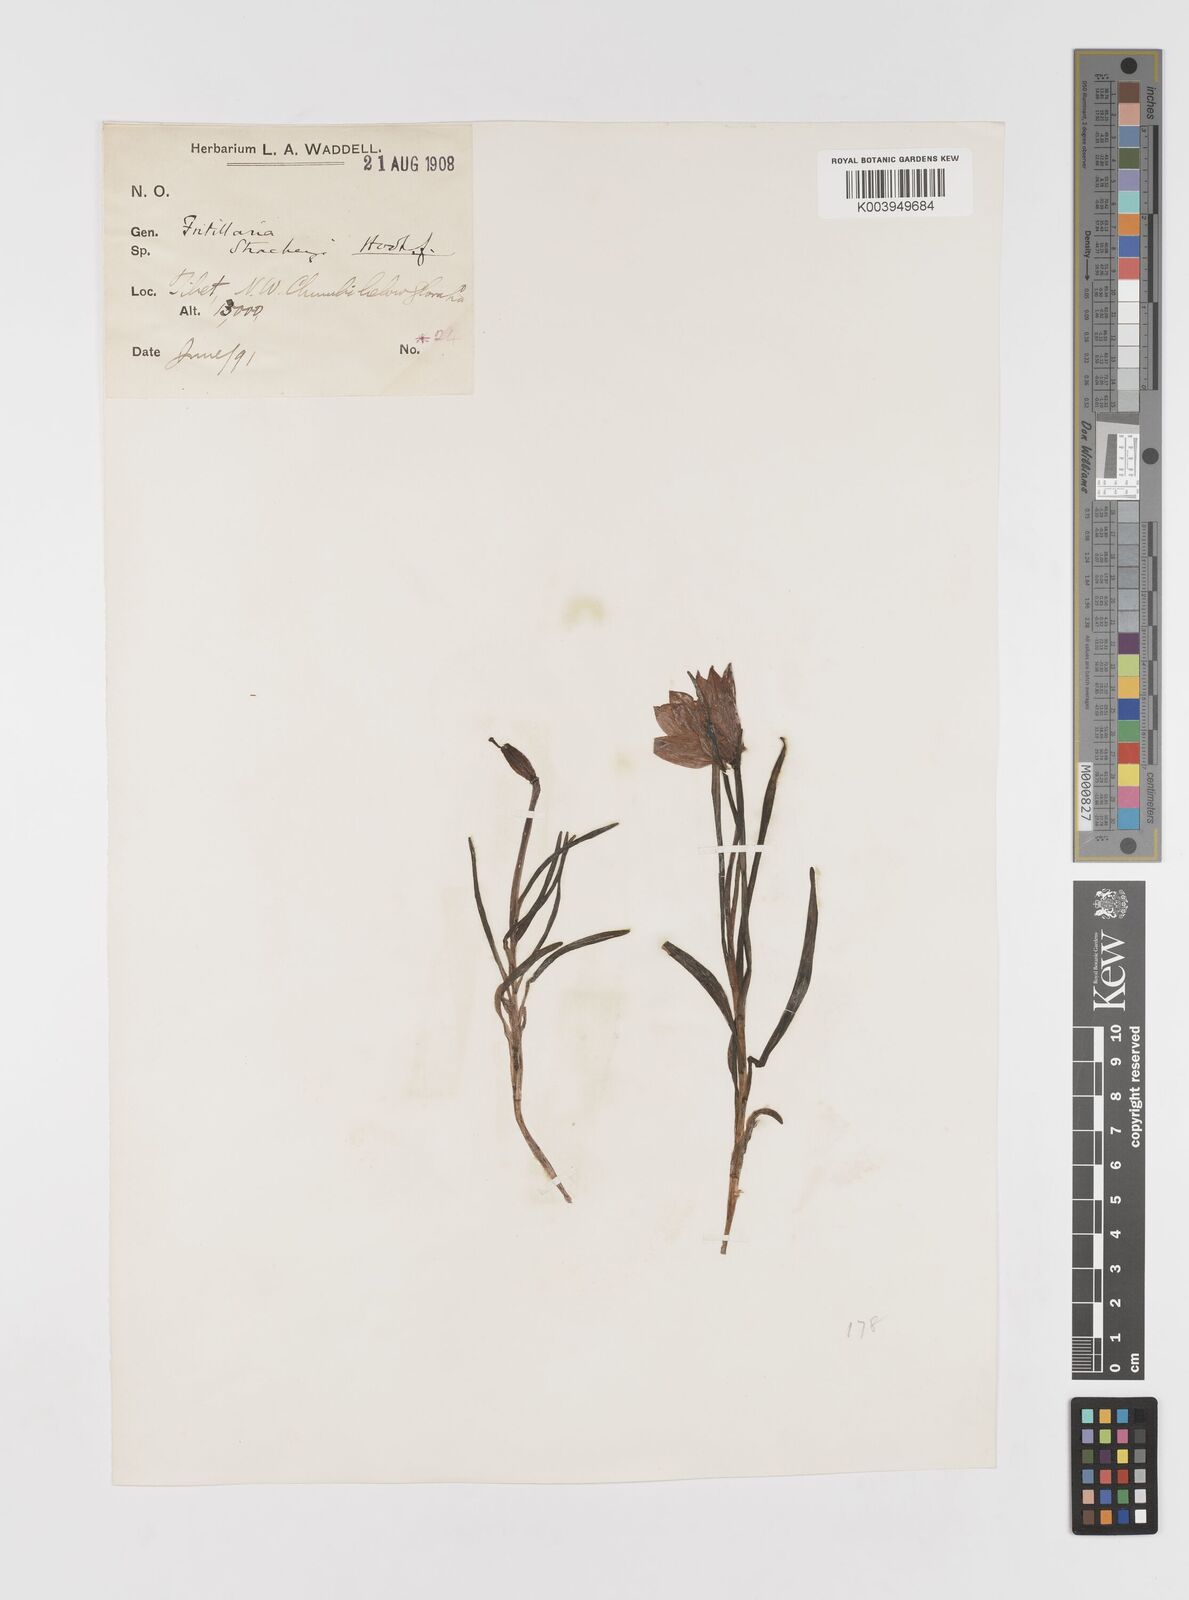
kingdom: Plantae
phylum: Tracheophyta
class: Liliopsida
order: Liliales
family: Liliaceae
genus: Lilium
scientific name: Lilium nanum
